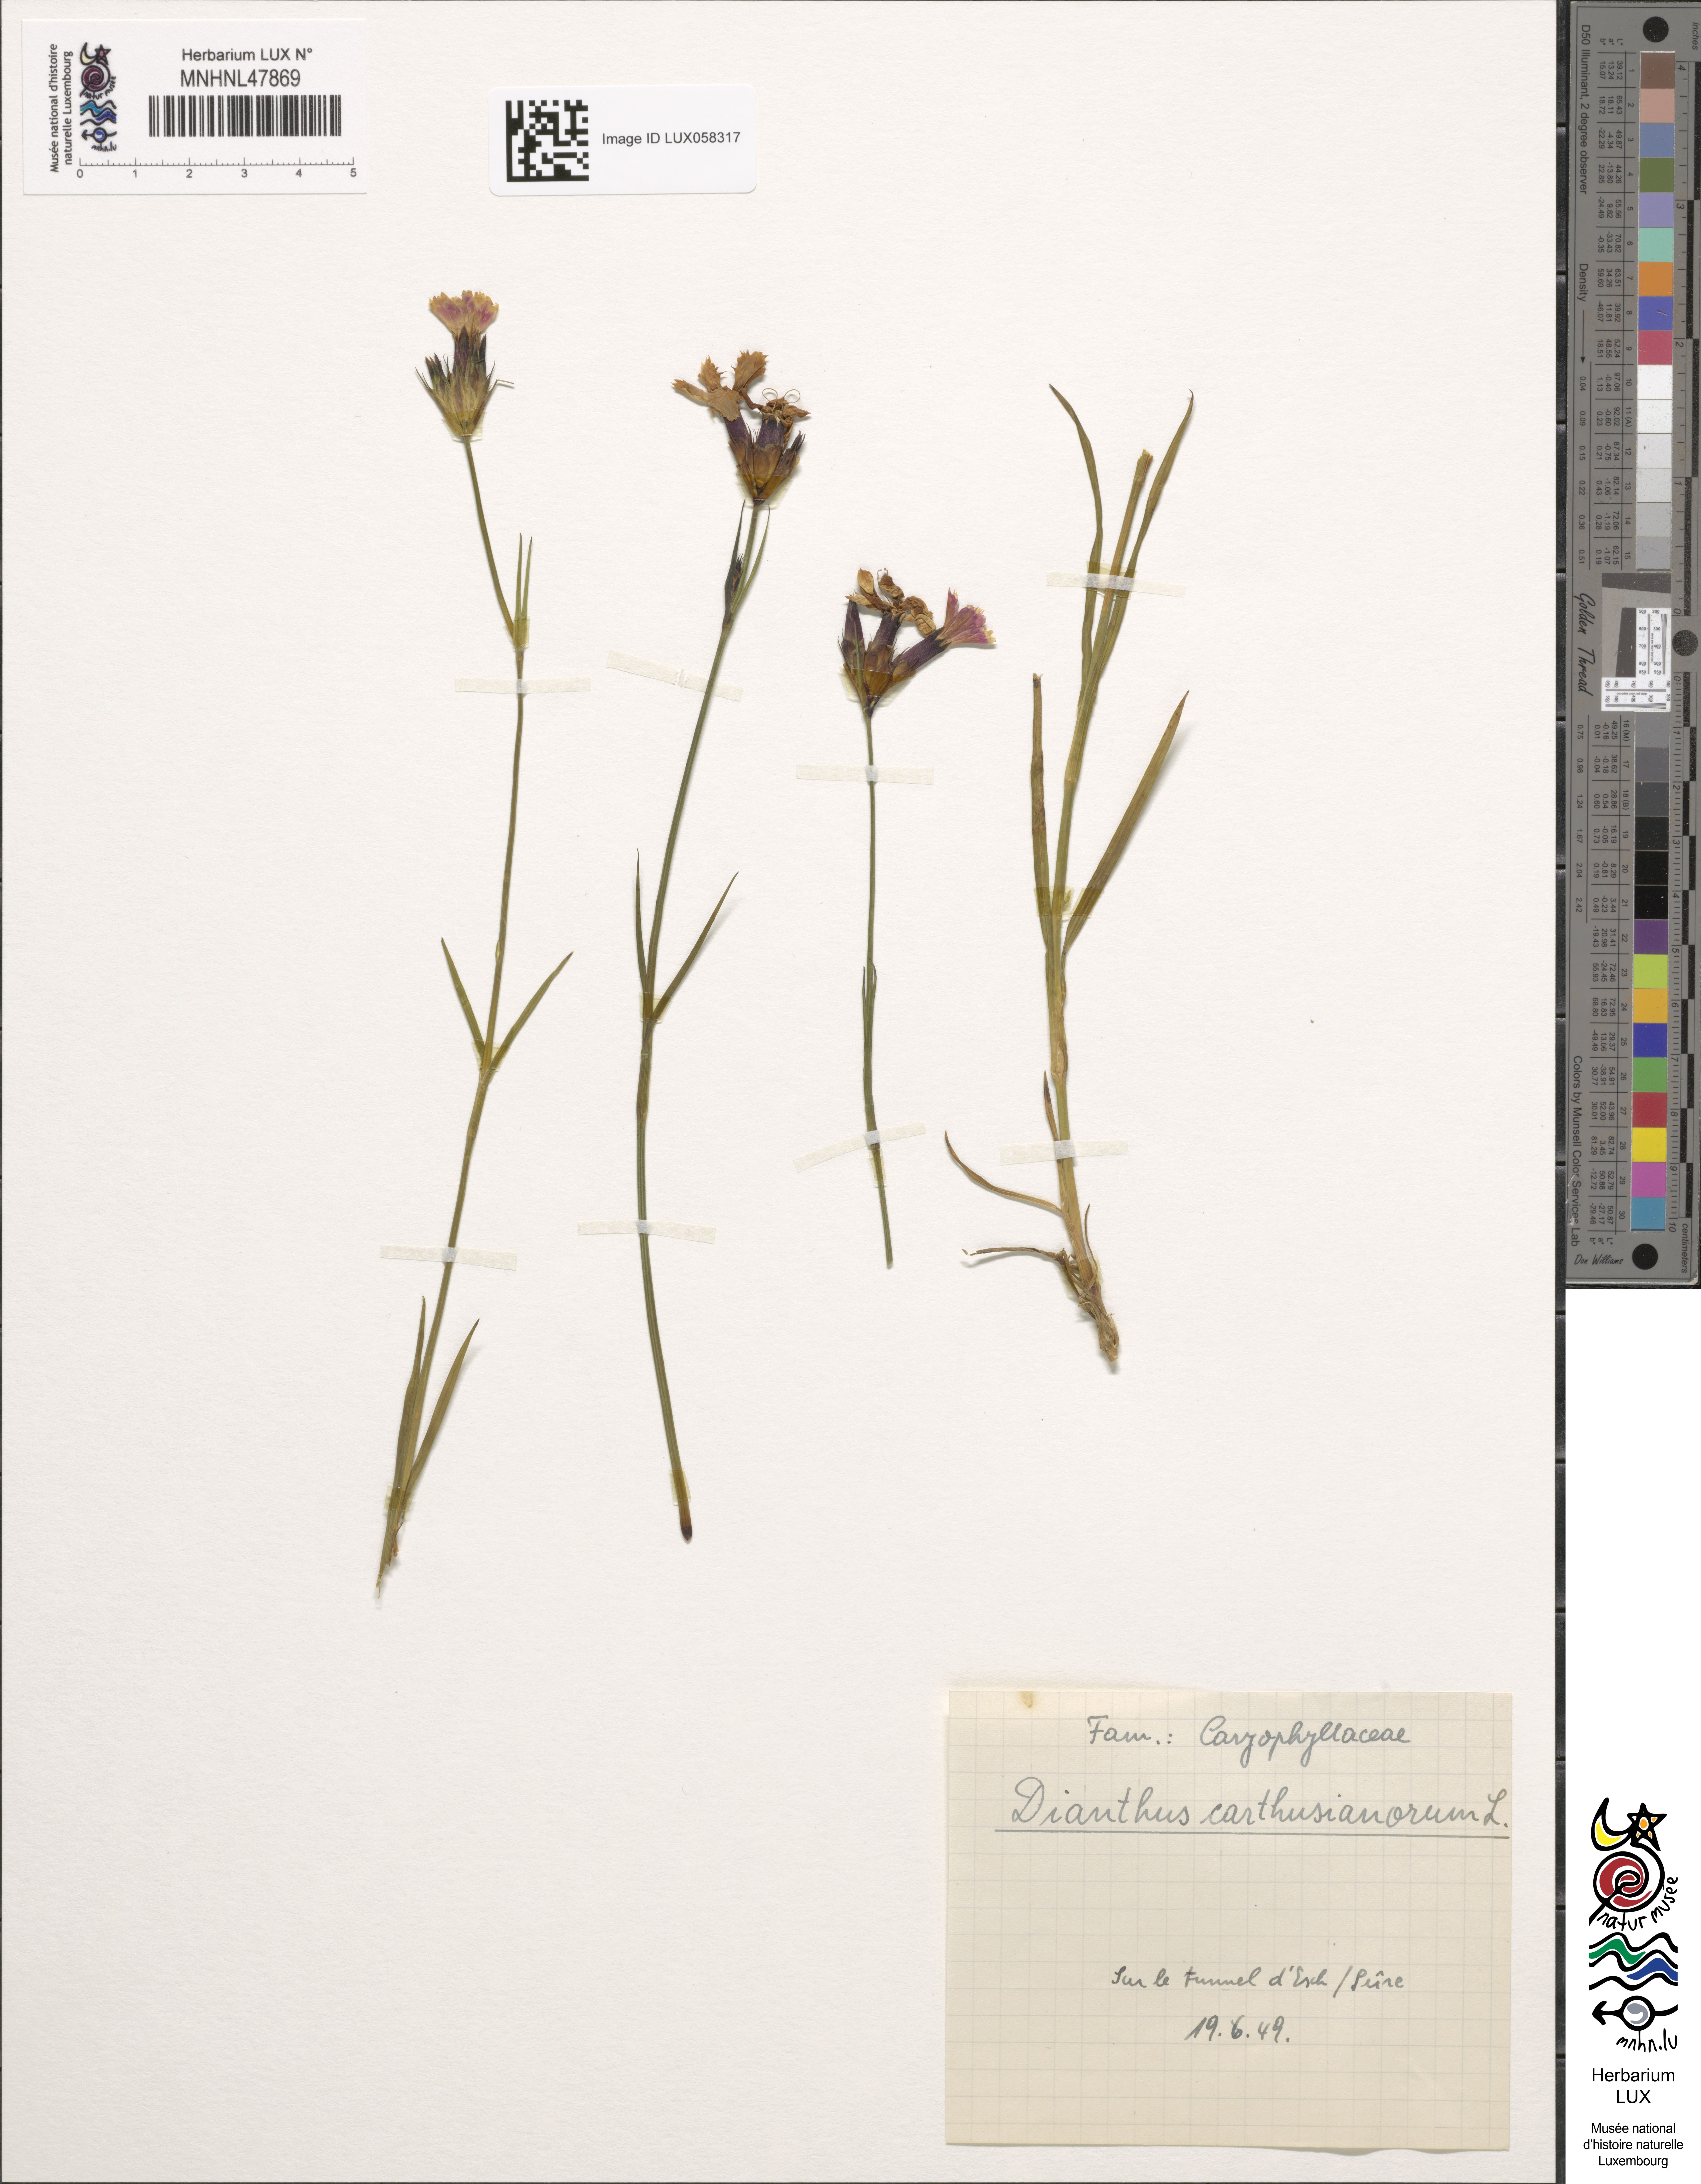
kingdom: Plantae
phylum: Tracheophyta
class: Magnoliopsida
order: Caryophyllales
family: Caryophyllaceae
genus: Dianthus
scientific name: Dianthus carthusianorum
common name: Carthusian pink
